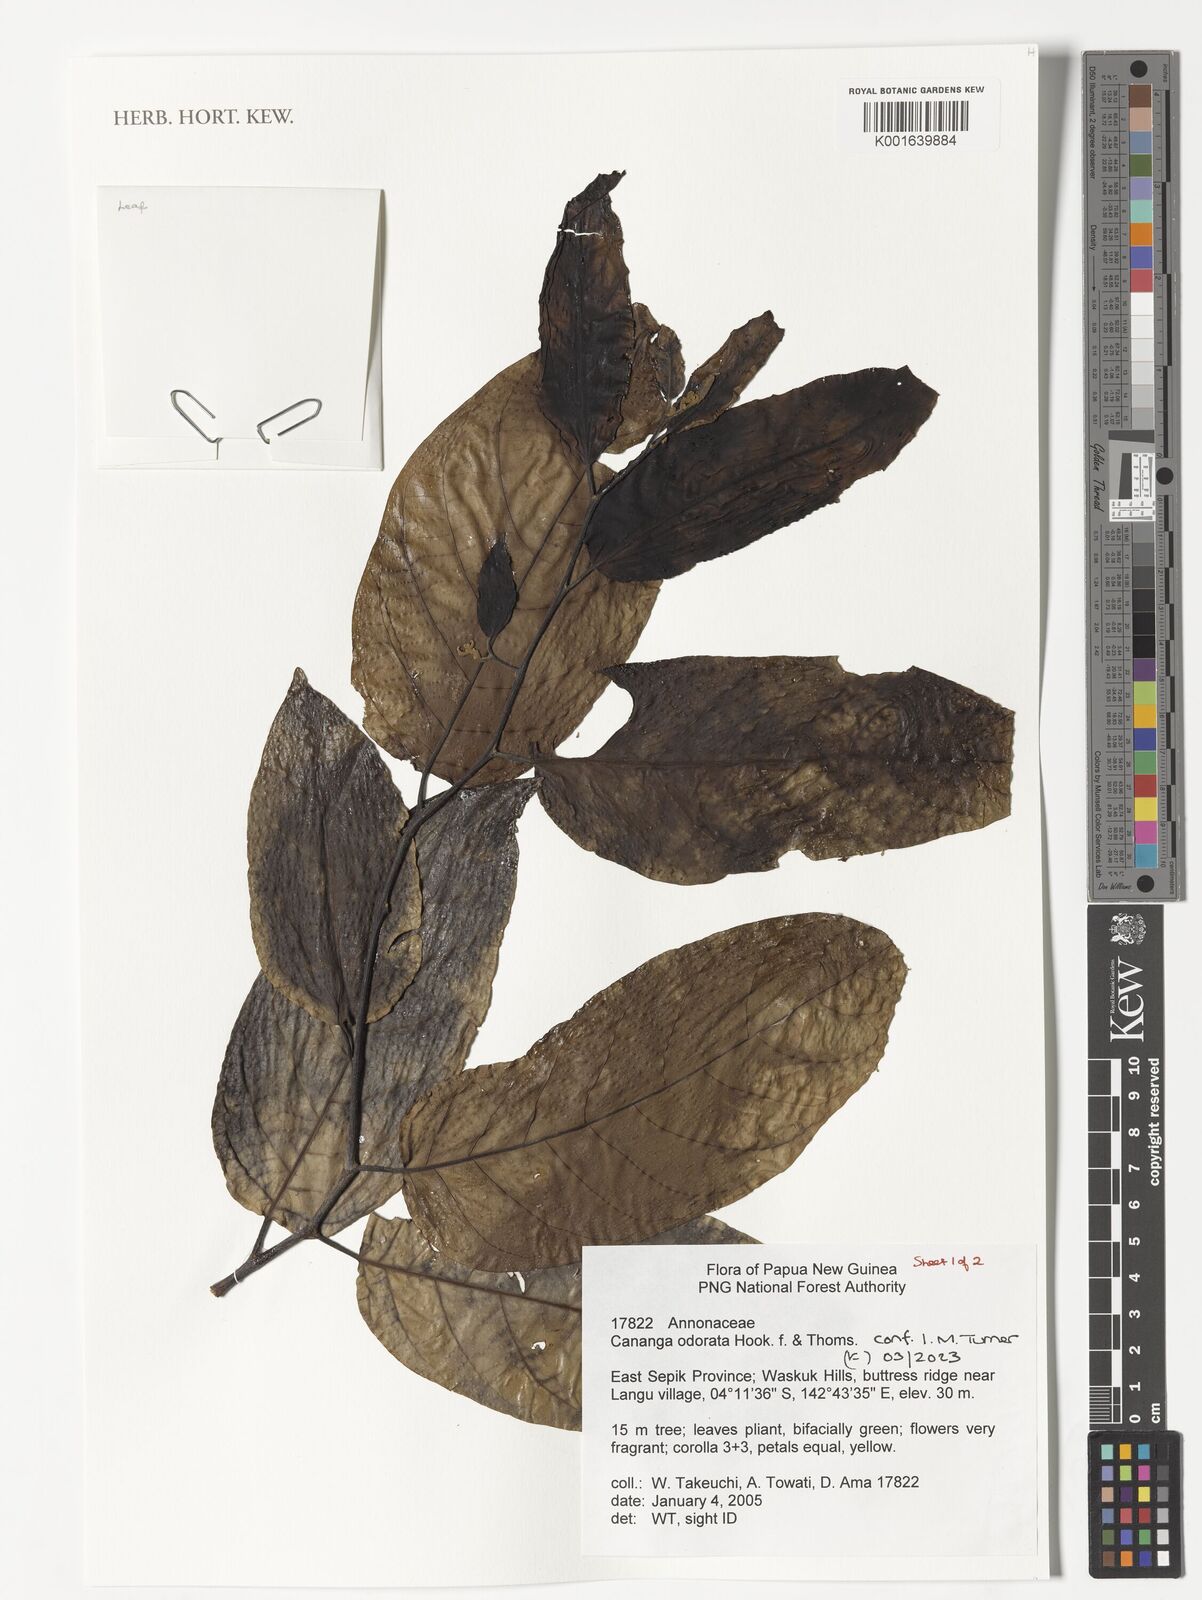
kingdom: Plantae
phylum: Tracheophyta
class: Magnoliopsida
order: Magnoliales
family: Annonaceae
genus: Cananga
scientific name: Cananga odorata
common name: Cananga tree
